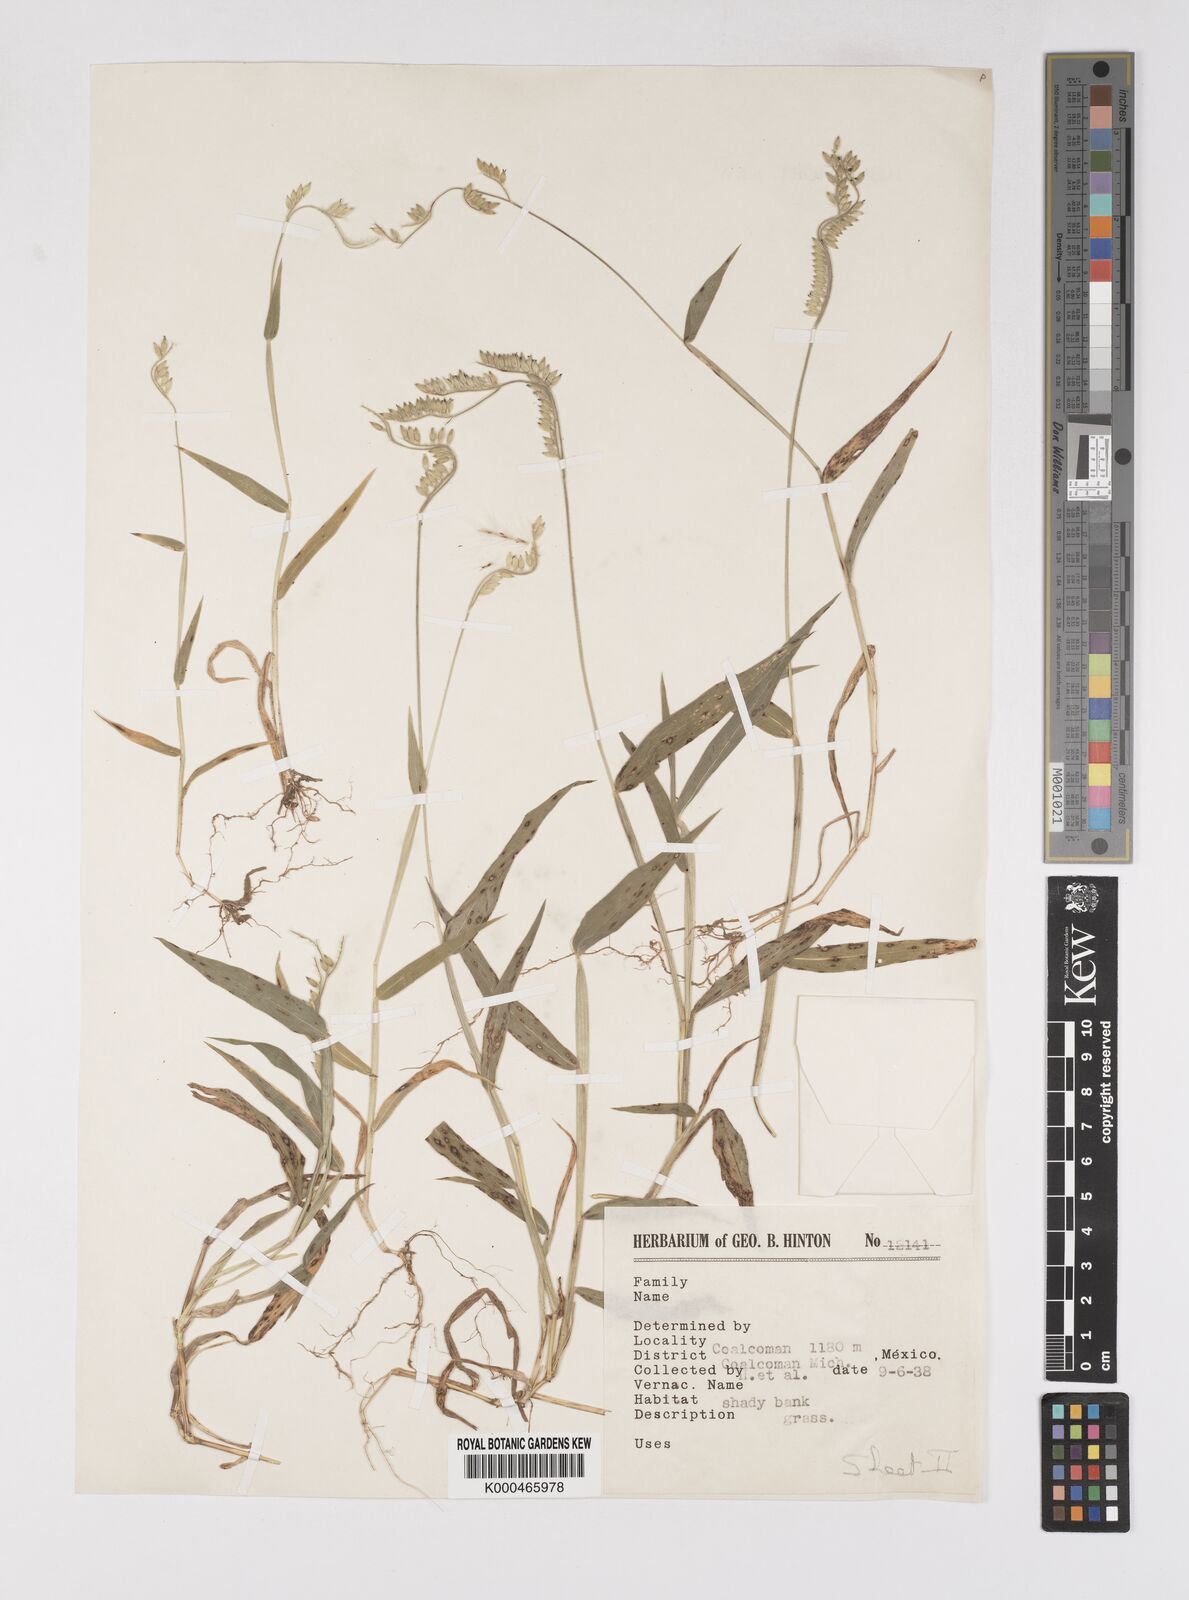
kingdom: Plantae
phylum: Tracheophyta
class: Liliopsida
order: Poales
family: Poaceae
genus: Eriochloa
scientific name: Eriochloa nelsonii
